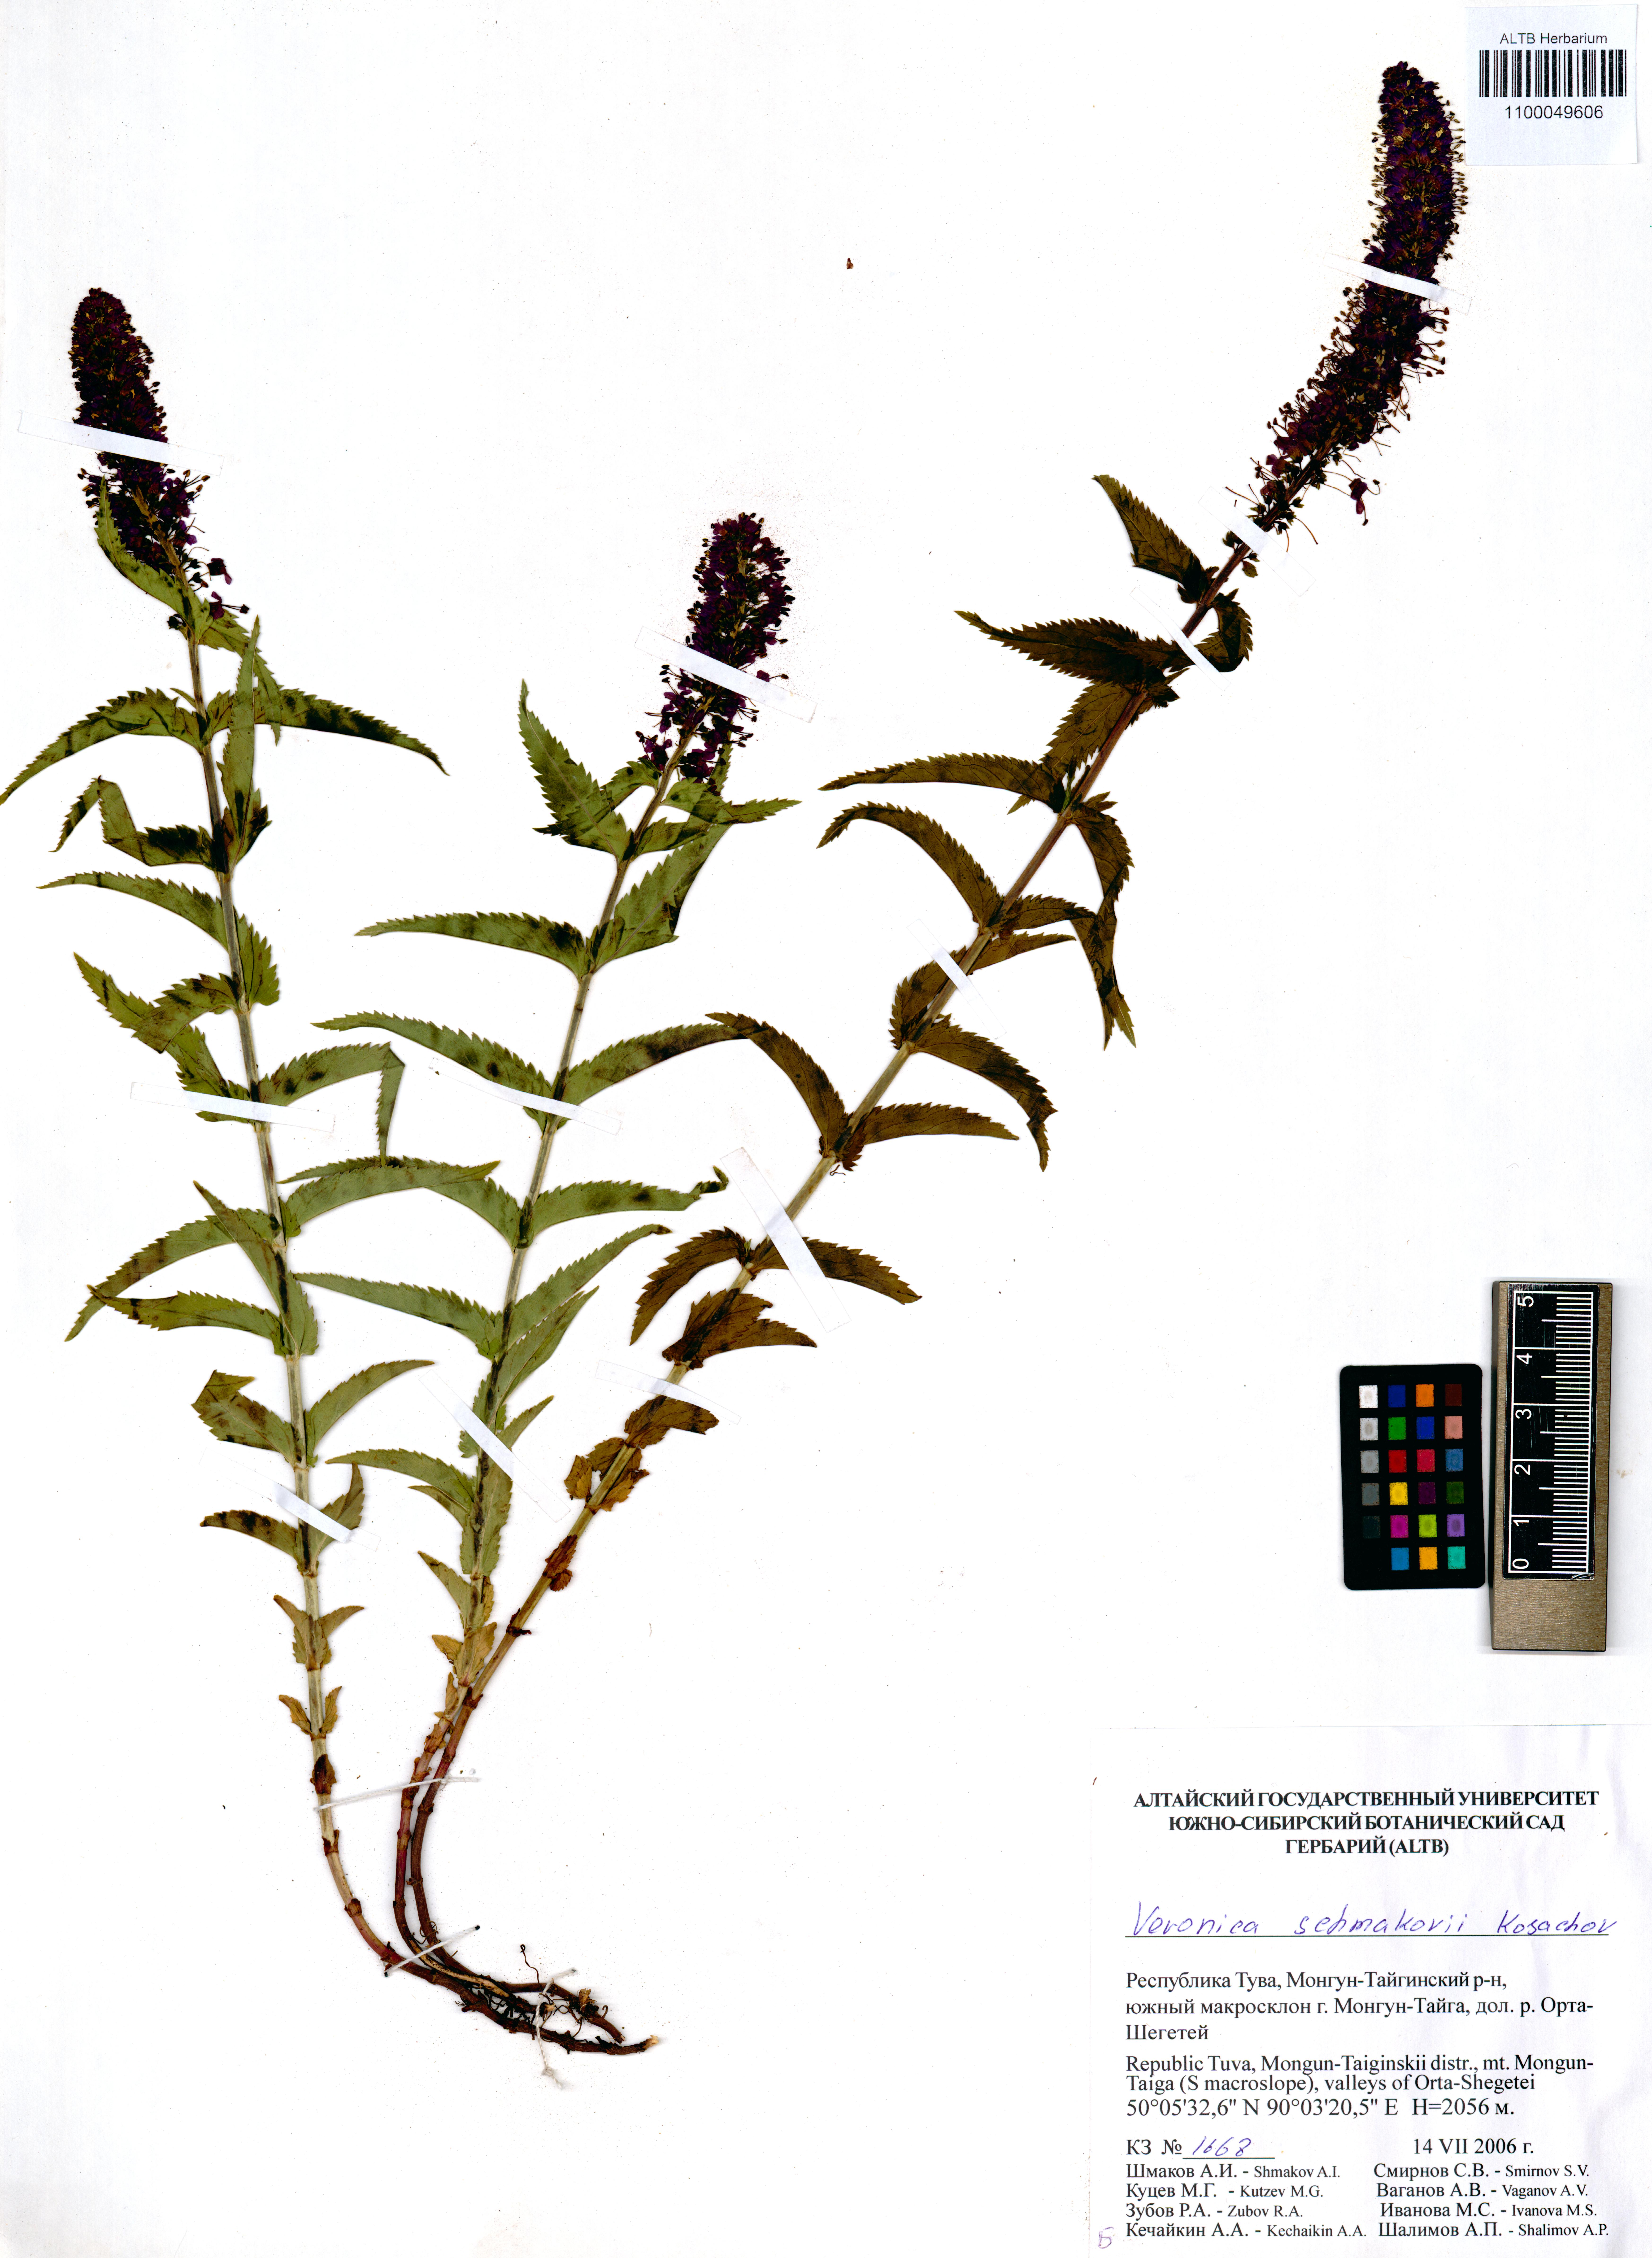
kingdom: Plantae
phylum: Tracheophyta
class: Magnoliopsida
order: Lamiales
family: Plantaginaceae
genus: Veronica
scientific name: Veronica schmakovii
